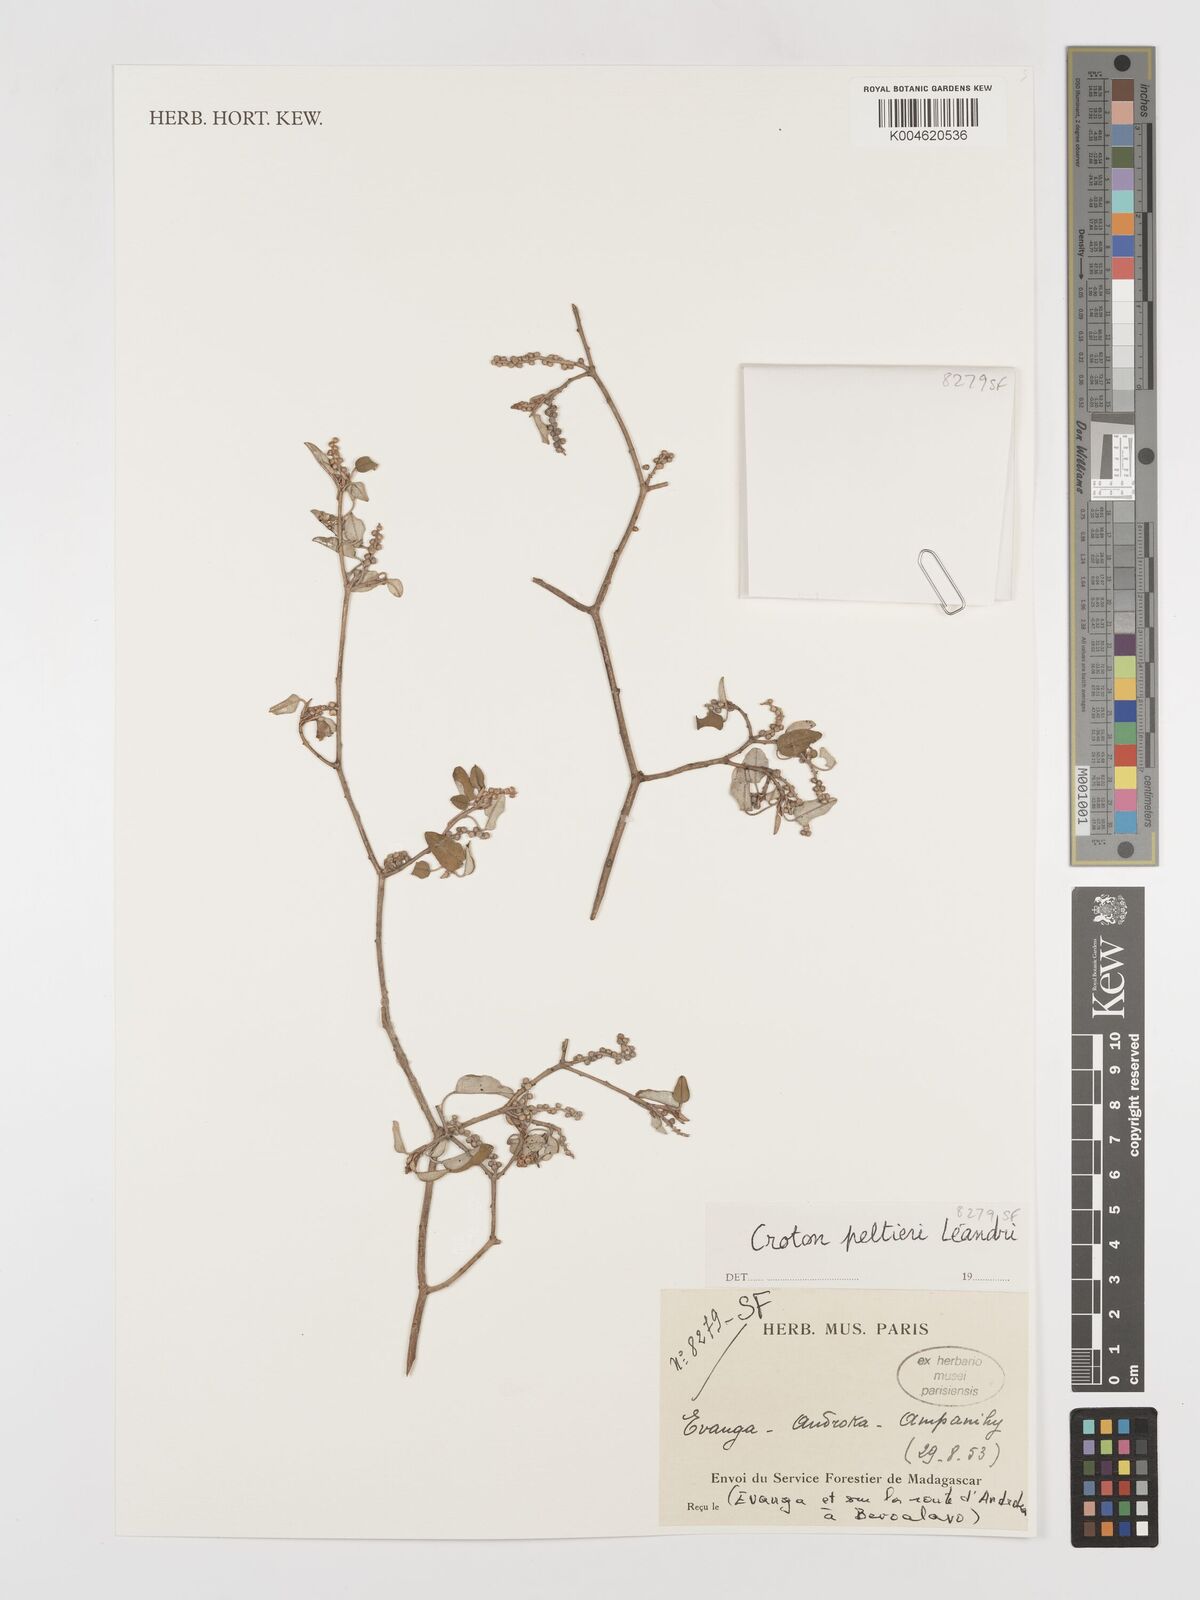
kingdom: Plantae
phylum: Tracheophyta
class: Magnoliopsida
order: Malpighiales
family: Euphorbiaceae
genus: Croton
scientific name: Croton miarensis
